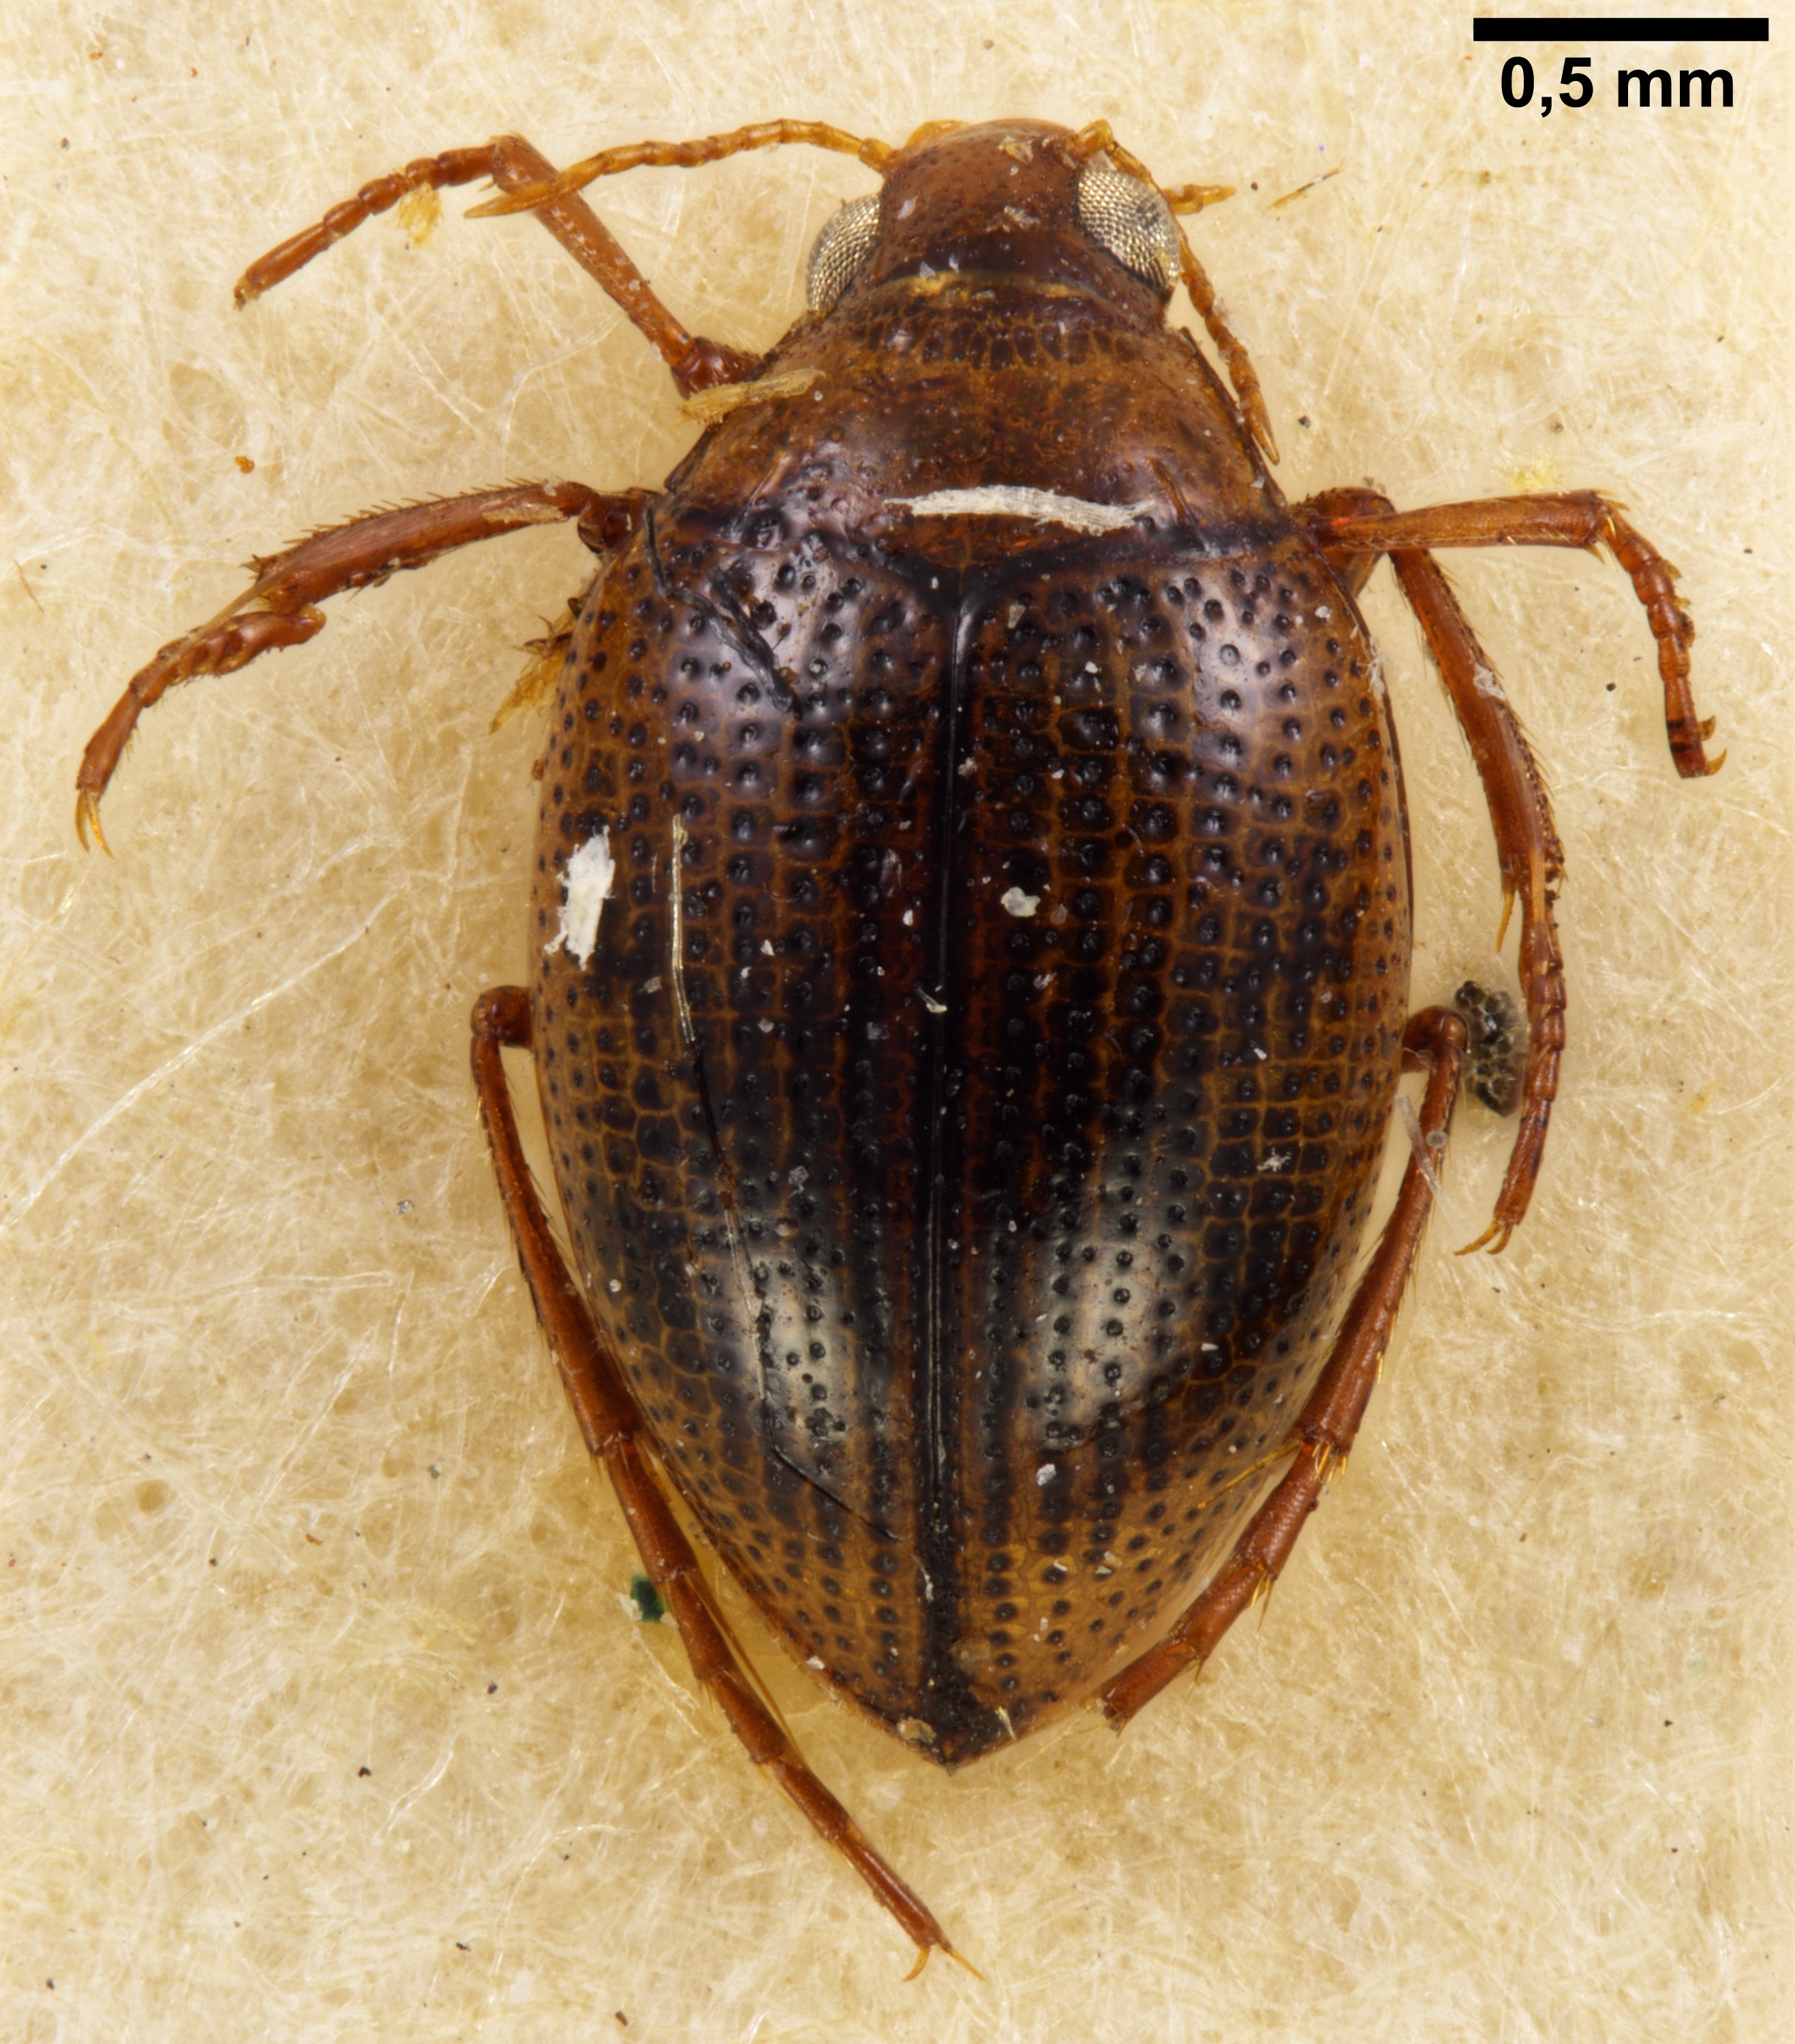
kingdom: Animalia
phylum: Arthropoda
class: Insecta
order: Coleoptera
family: Haliplidae
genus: Haliplus
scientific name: Haliplus interjectus
